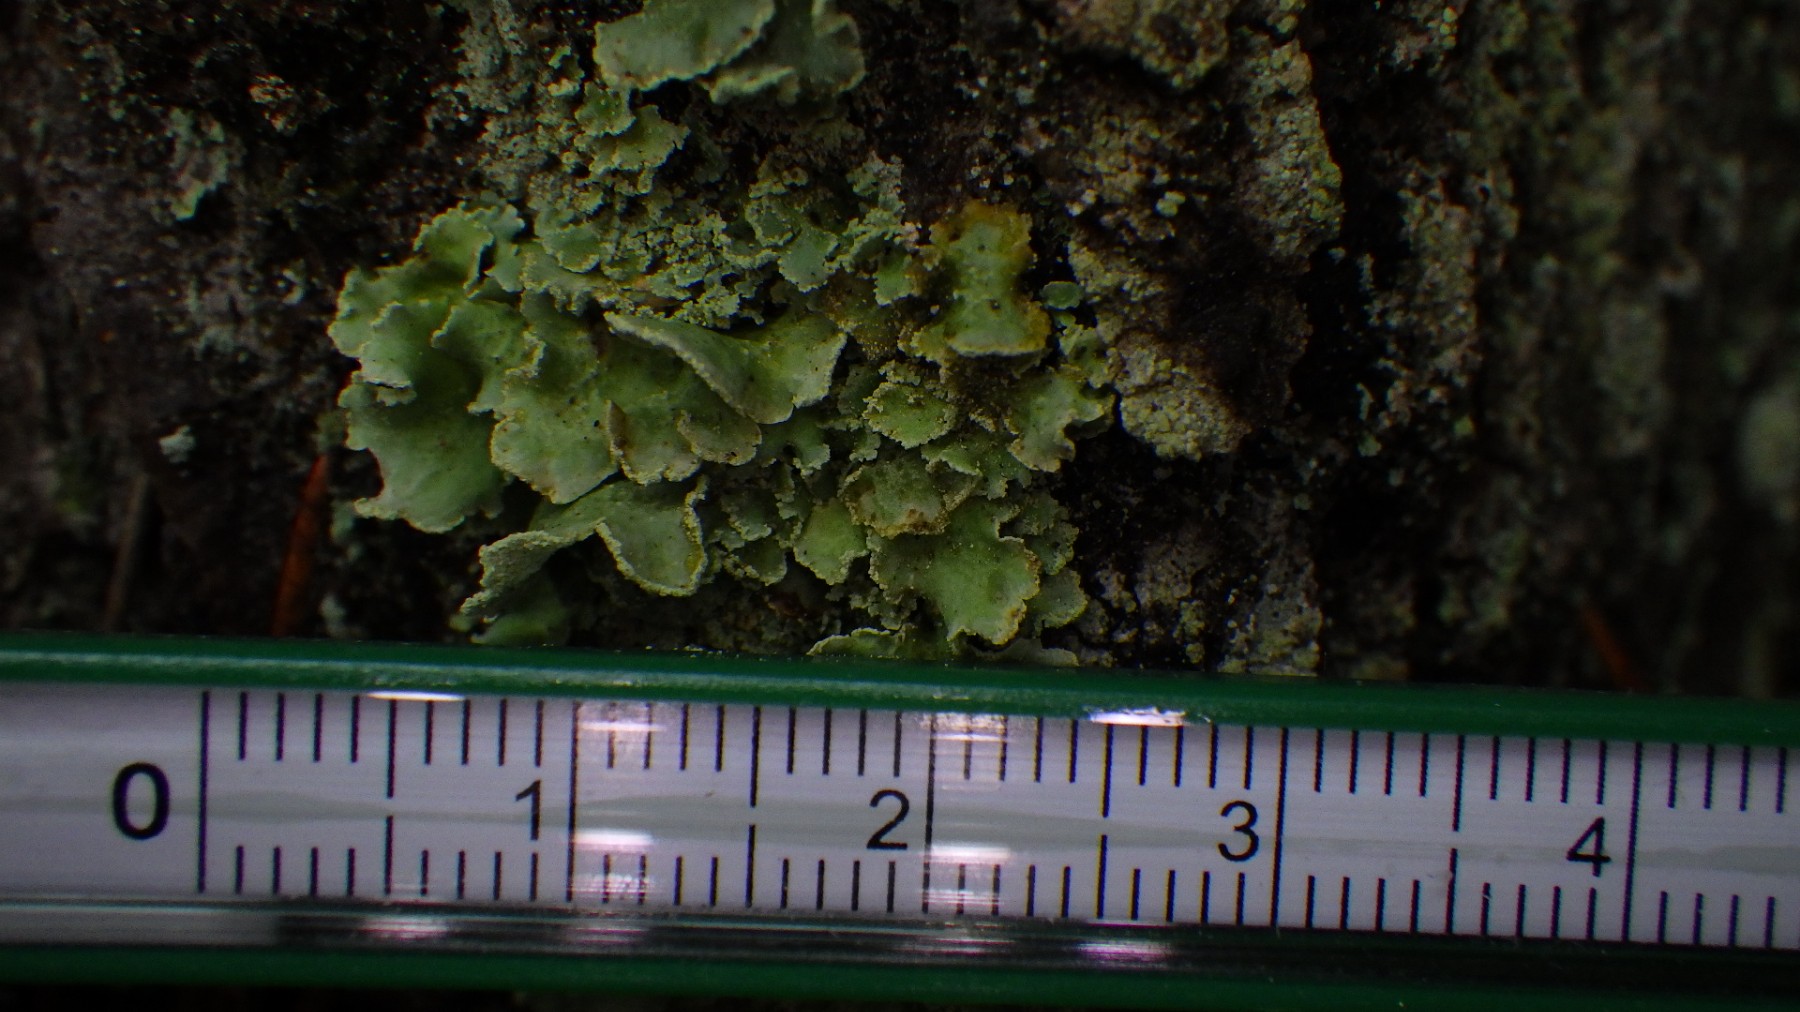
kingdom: Fungi
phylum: Ascomycota
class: Lecanoromycetes
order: Lecanorales
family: Cladoniaceae
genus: Cladonia
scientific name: Cladonia digitata
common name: finger-bægerlav
